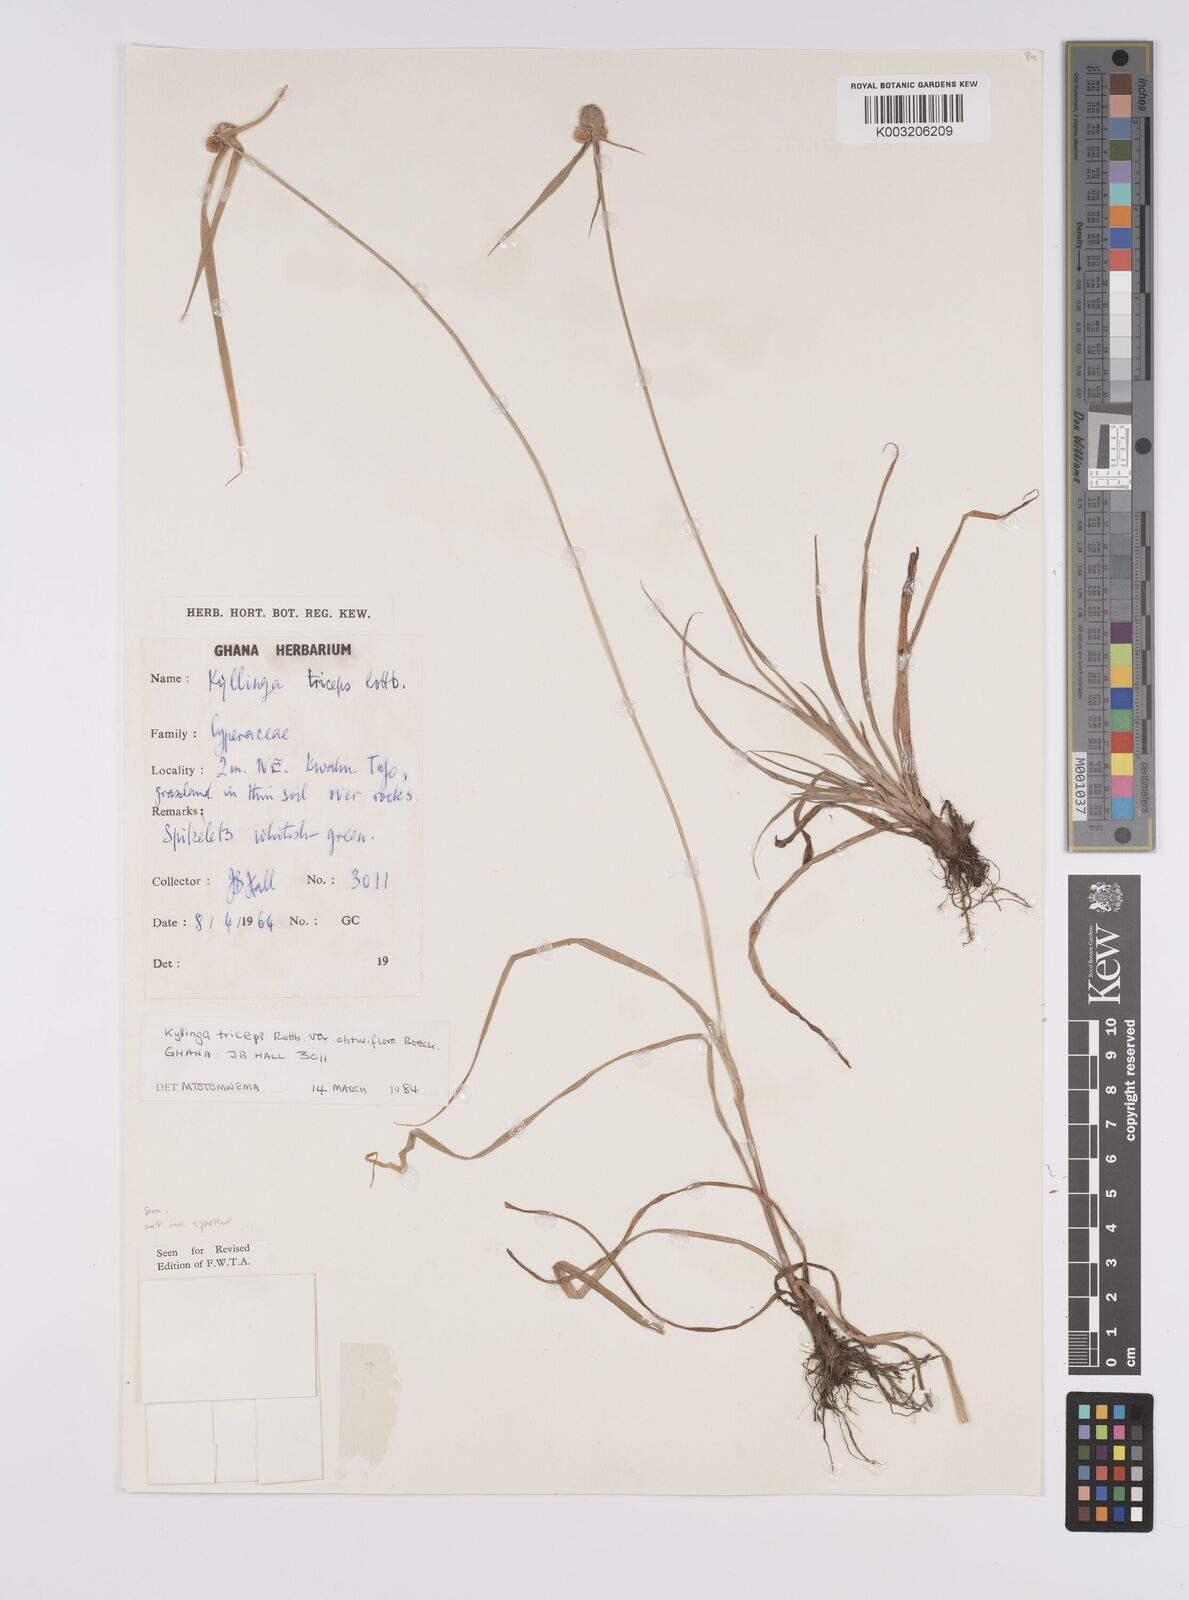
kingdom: Plantae
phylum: Tracheophyta
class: Liliopsida
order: Poales
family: Cyperaceae
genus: Cyperus
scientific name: Cyperus
